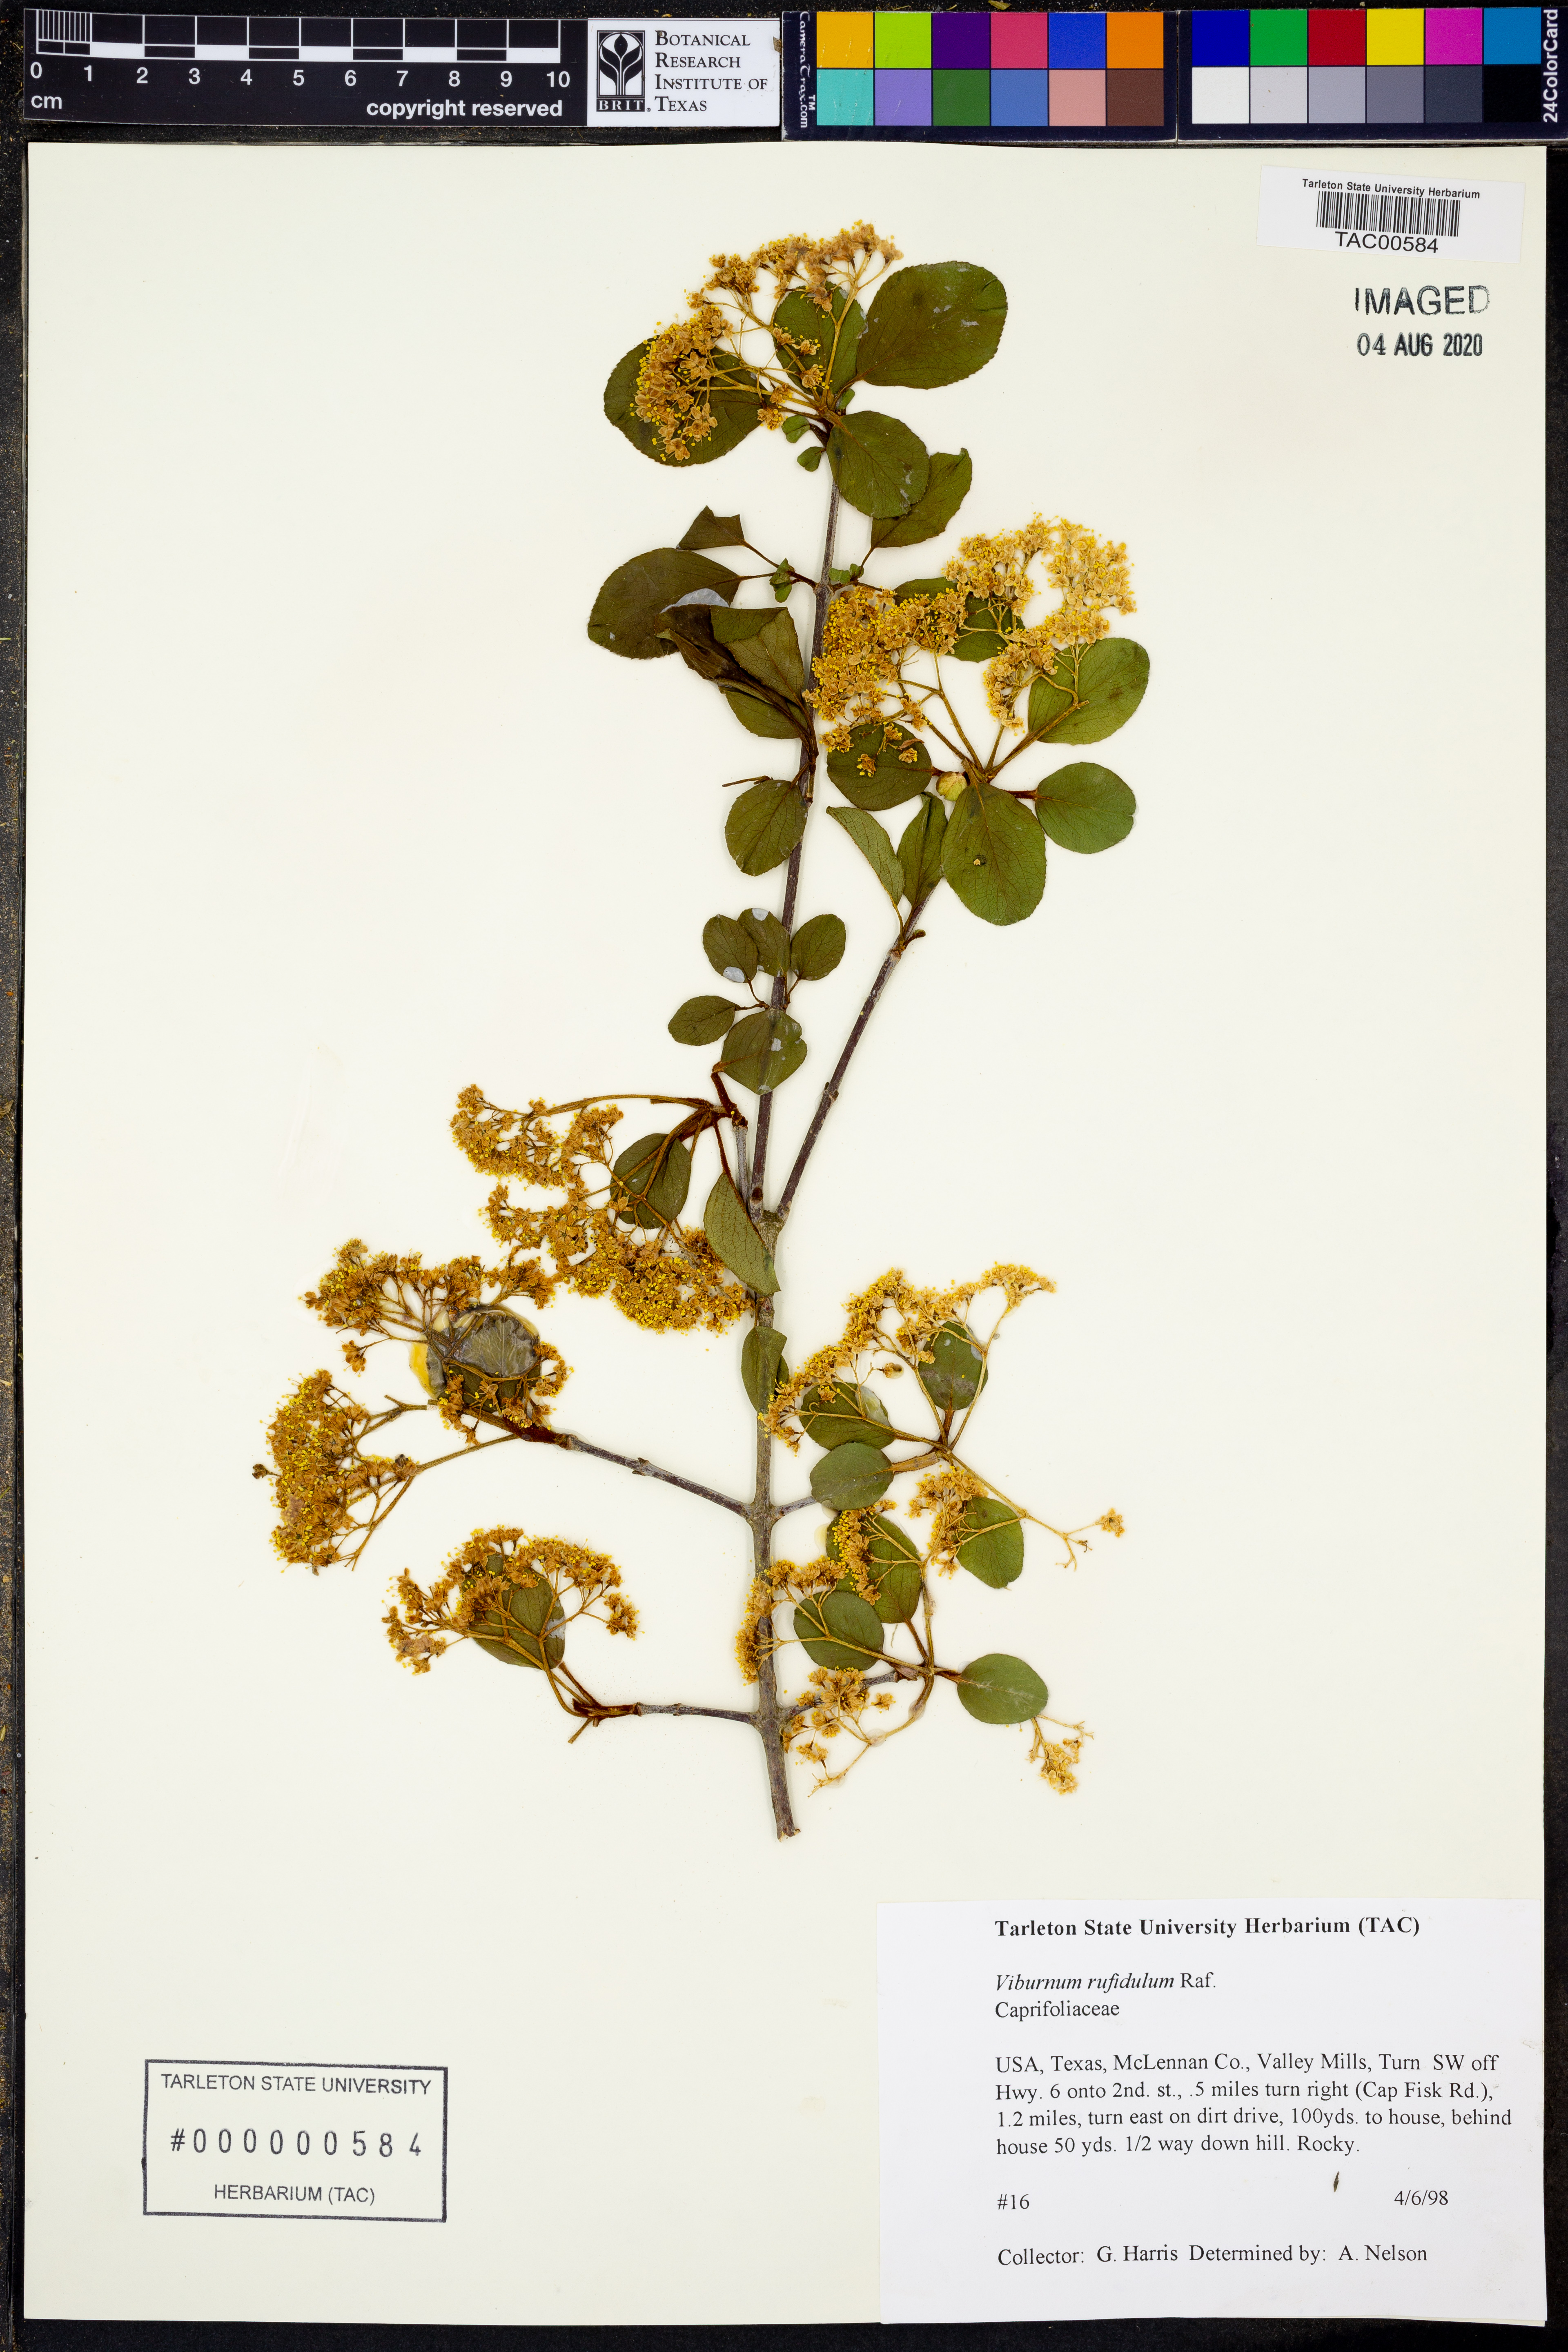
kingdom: Plantae
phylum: Tracheophyta
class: Magnoliopsida
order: Dipsacales
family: Viburnaceae
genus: Viburnum
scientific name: Viburnum rufidulum
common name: Blue haw
